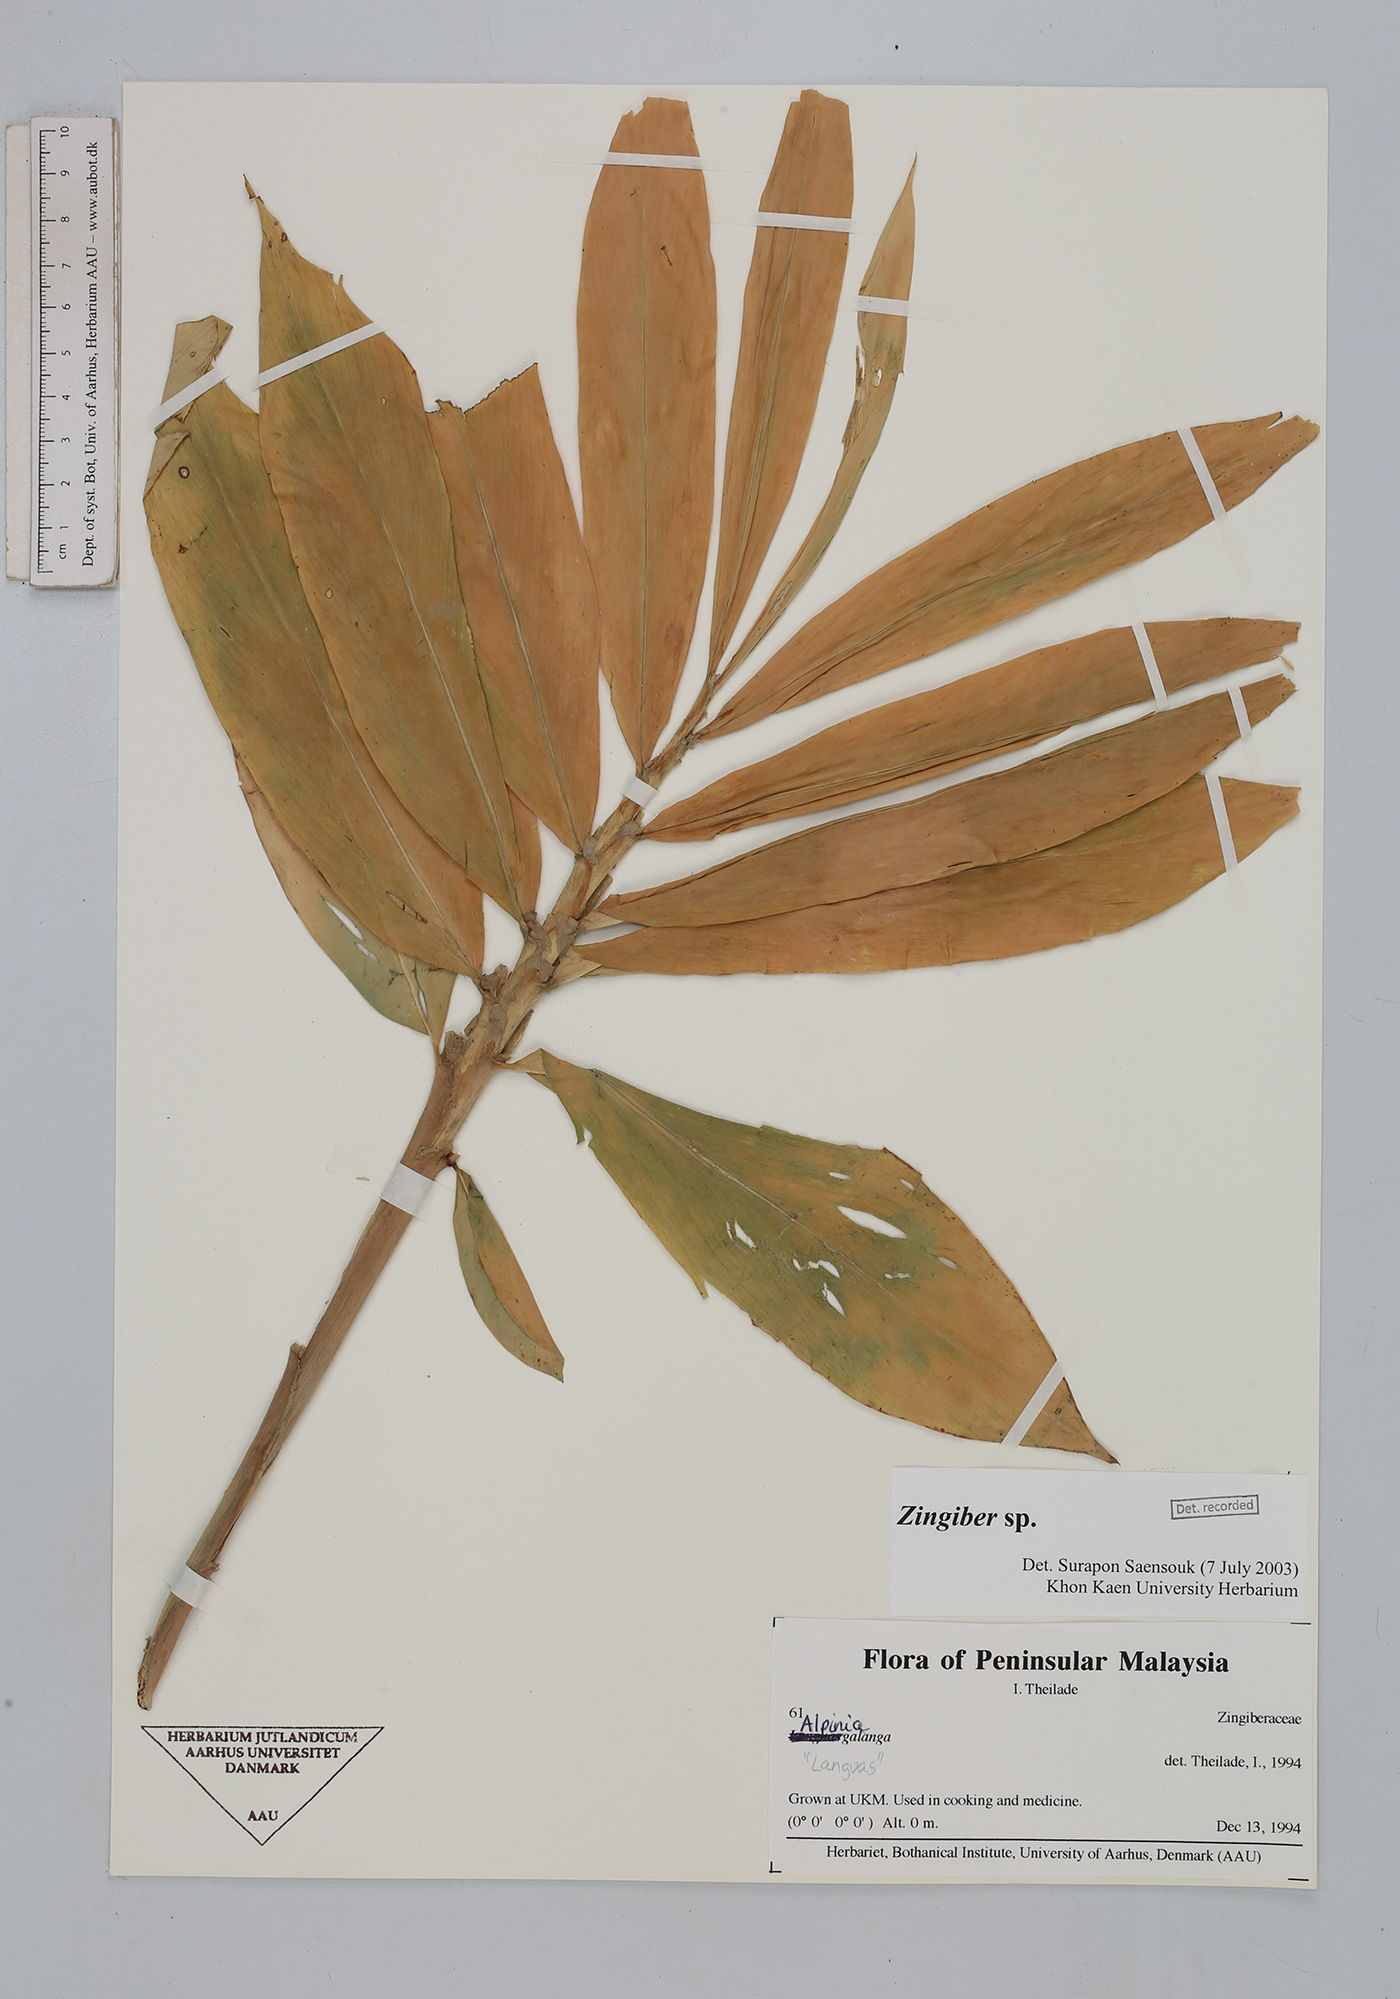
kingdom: Plantae
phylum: Tracheophyta
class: Liliopsida
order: Zingiberales
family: Zingiberaceae
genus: Zingiber
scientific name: Zingiber
